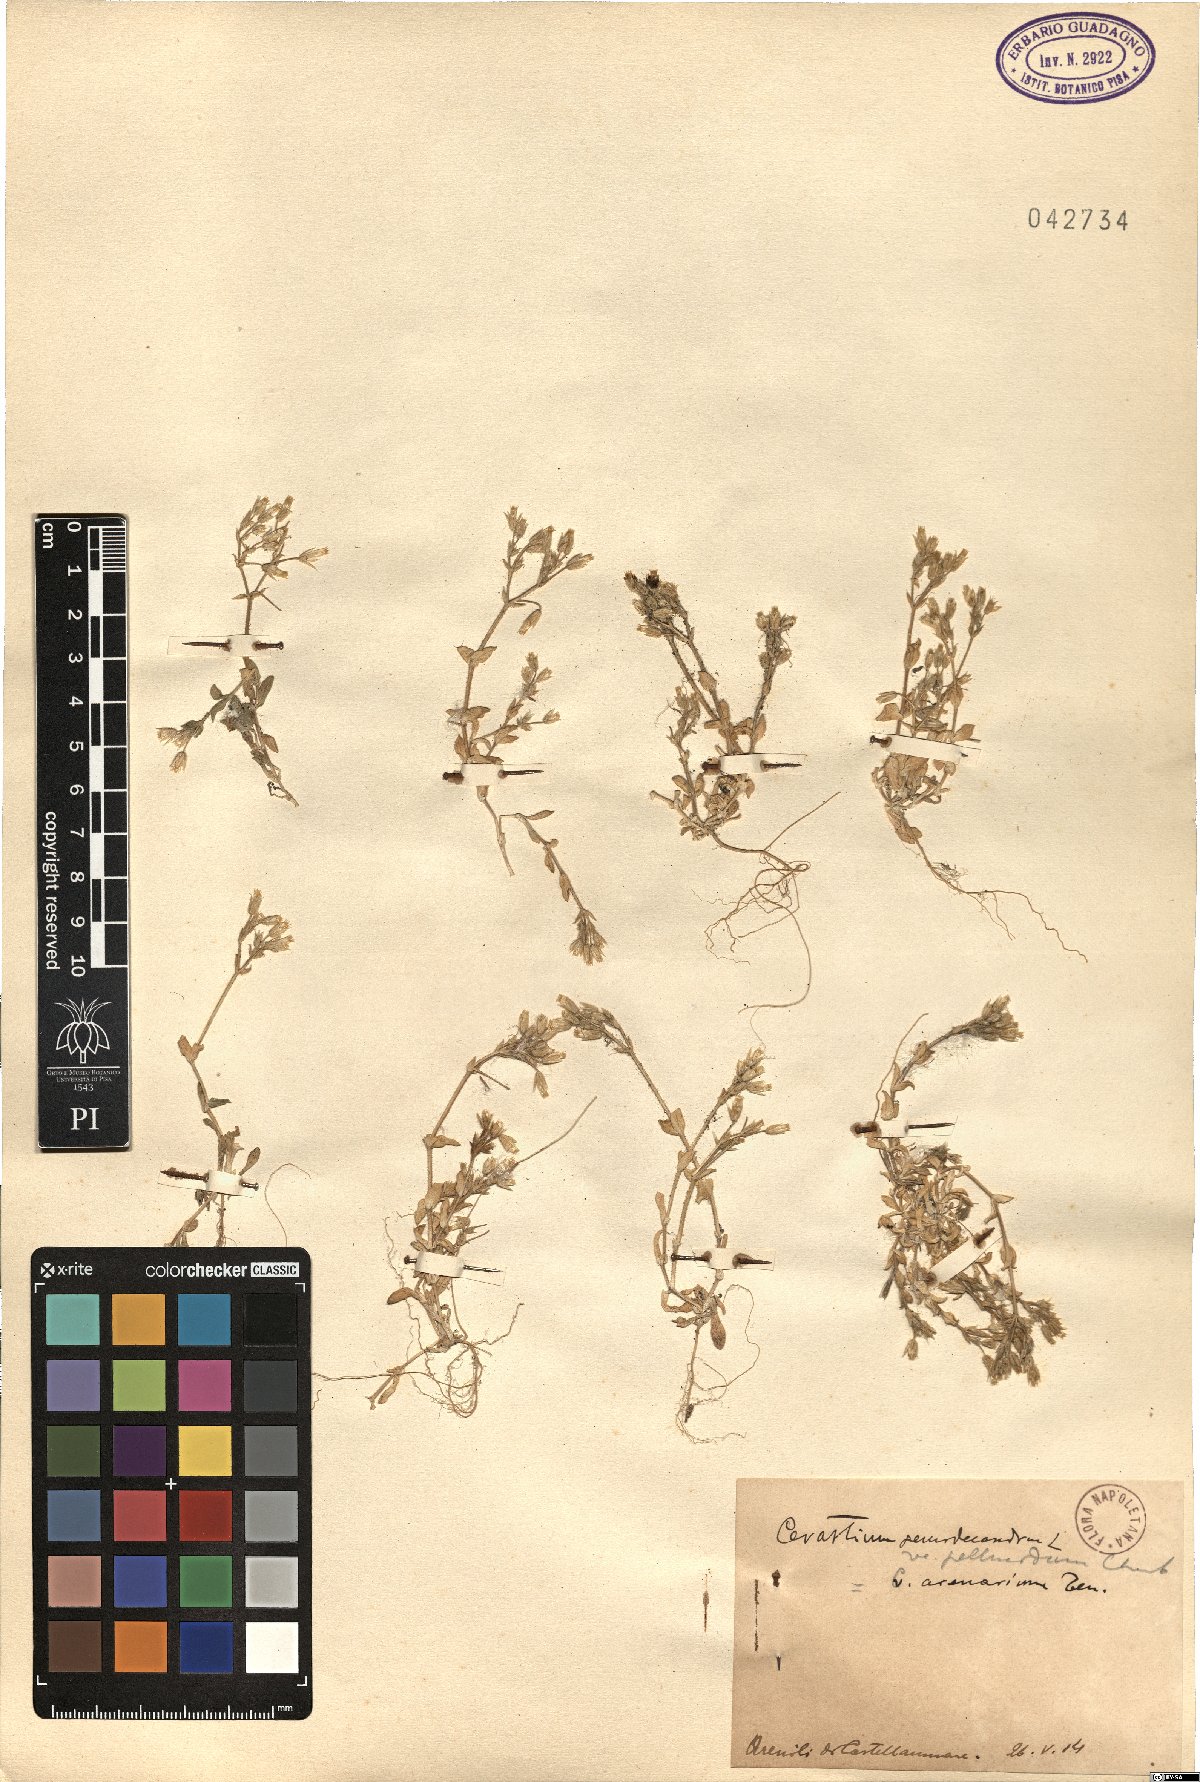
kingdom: Plantae
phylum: Tracheophyta
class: Magnoliopsida
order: Caryophyllales
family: Caryophyllaceae
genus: Cerastium
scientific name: Cerastium semidecandrum
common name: Little mouse-ear
